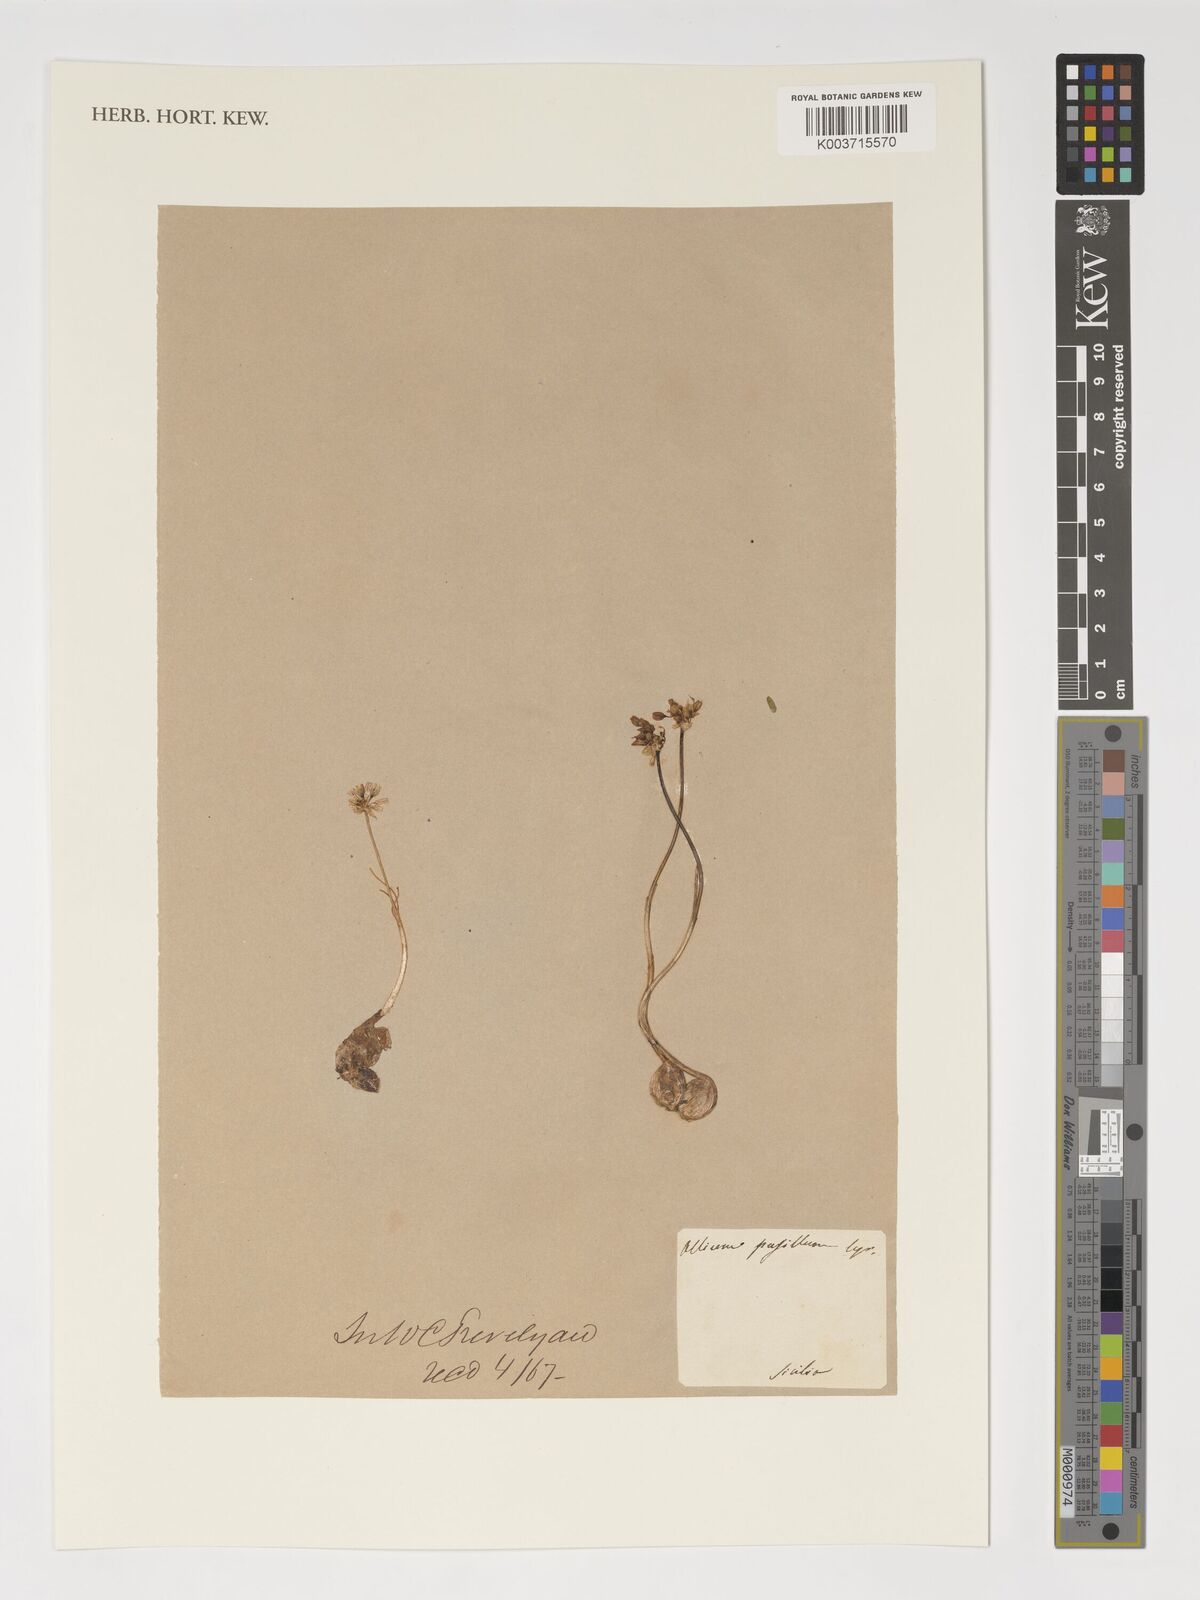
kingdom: Plantae
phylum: Tracheophyta
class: Liliopsida
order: Asparagales
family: Amaryllidaceae
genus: Allium
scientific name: Allium cupani
